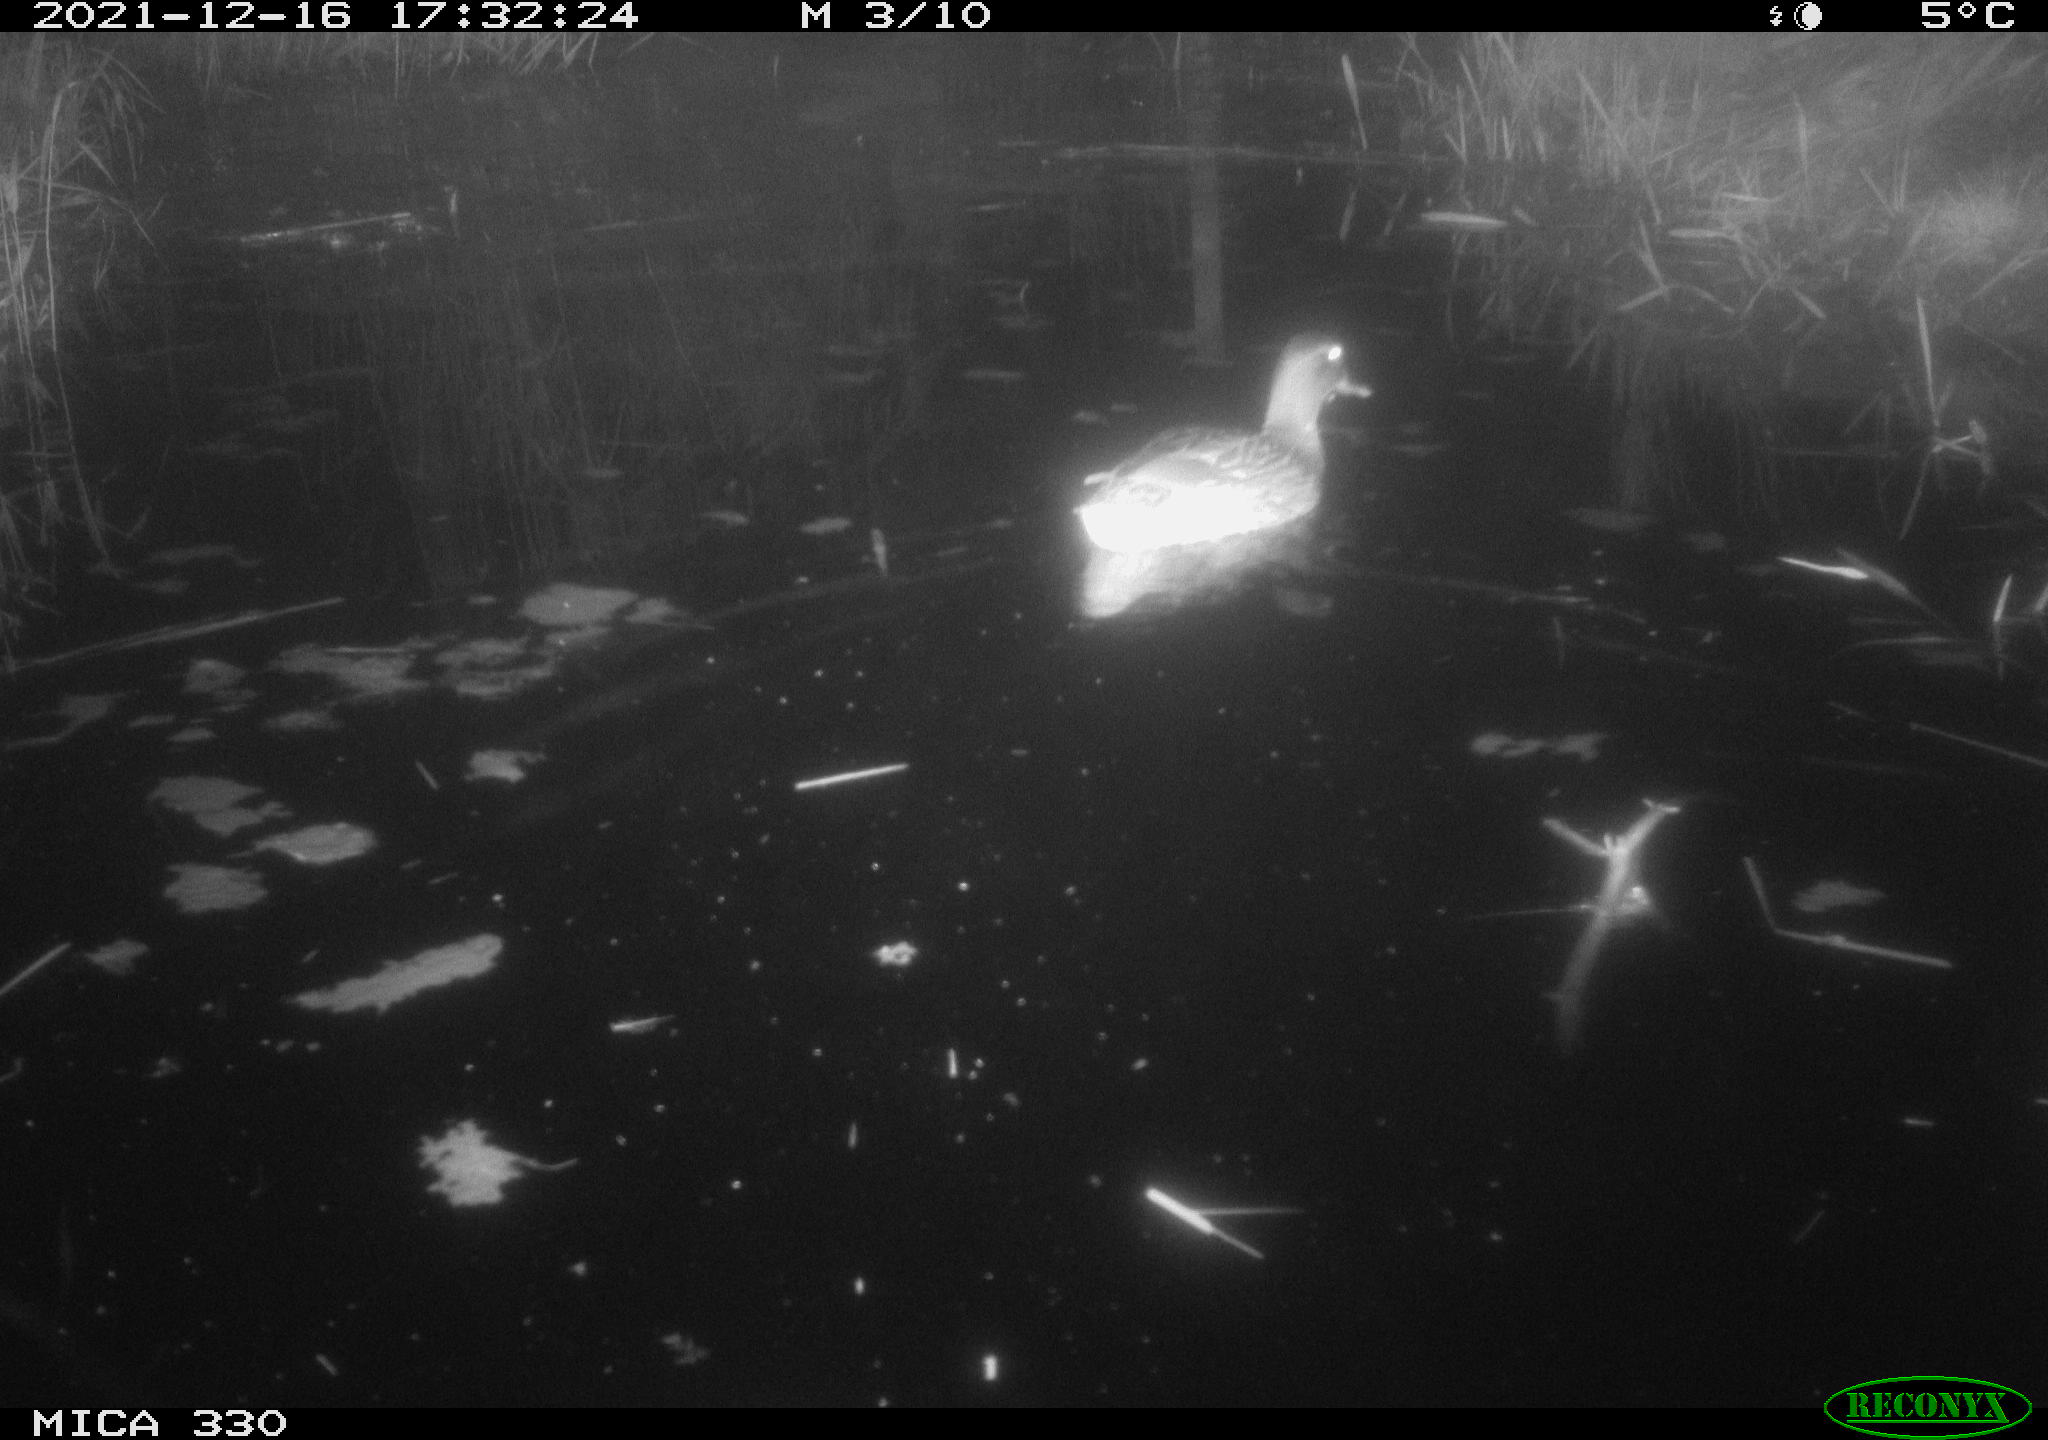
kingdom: Animalia
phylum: Chordata
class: Aves
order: Anseriformes
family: Anatidae
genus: Anas
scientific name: Anas platyrhynchos
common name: Mallard
